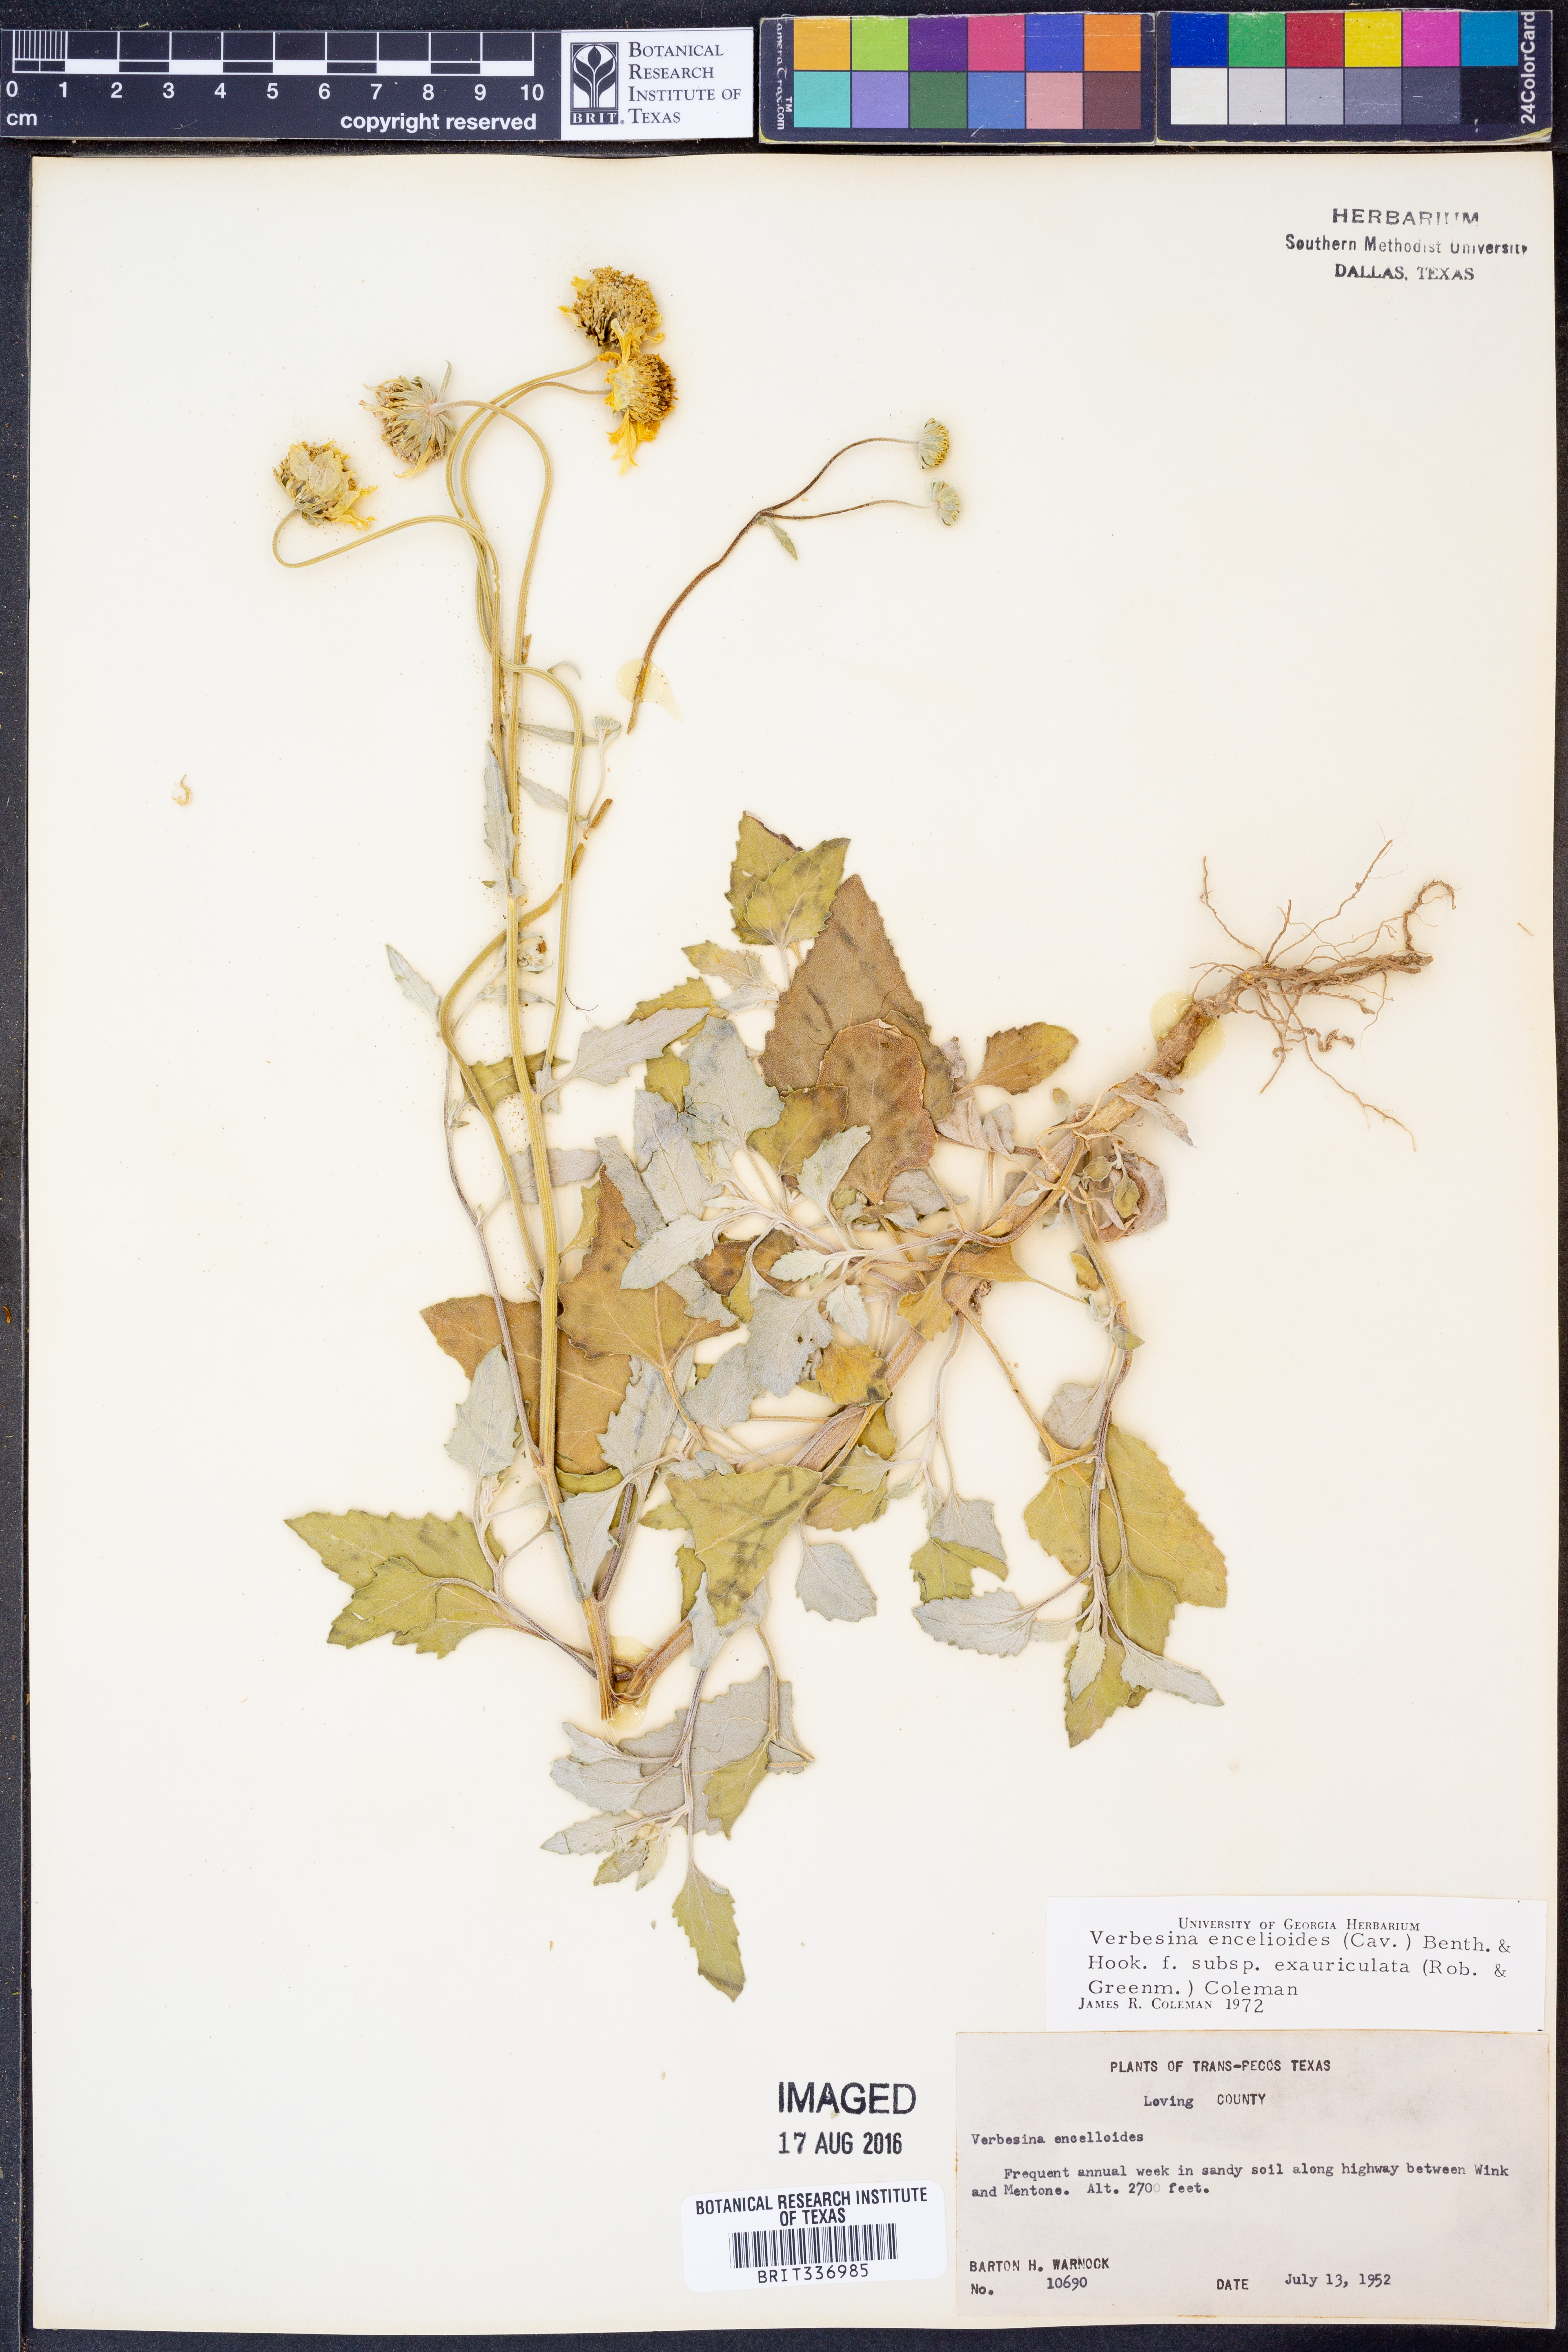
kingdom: Plantae
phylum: Tracheophyta
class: Magnoliopsida
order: Asterales
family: Asteraceae
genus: Verbesina
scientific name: Verbesina encelioides
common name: Golden crownbeard
